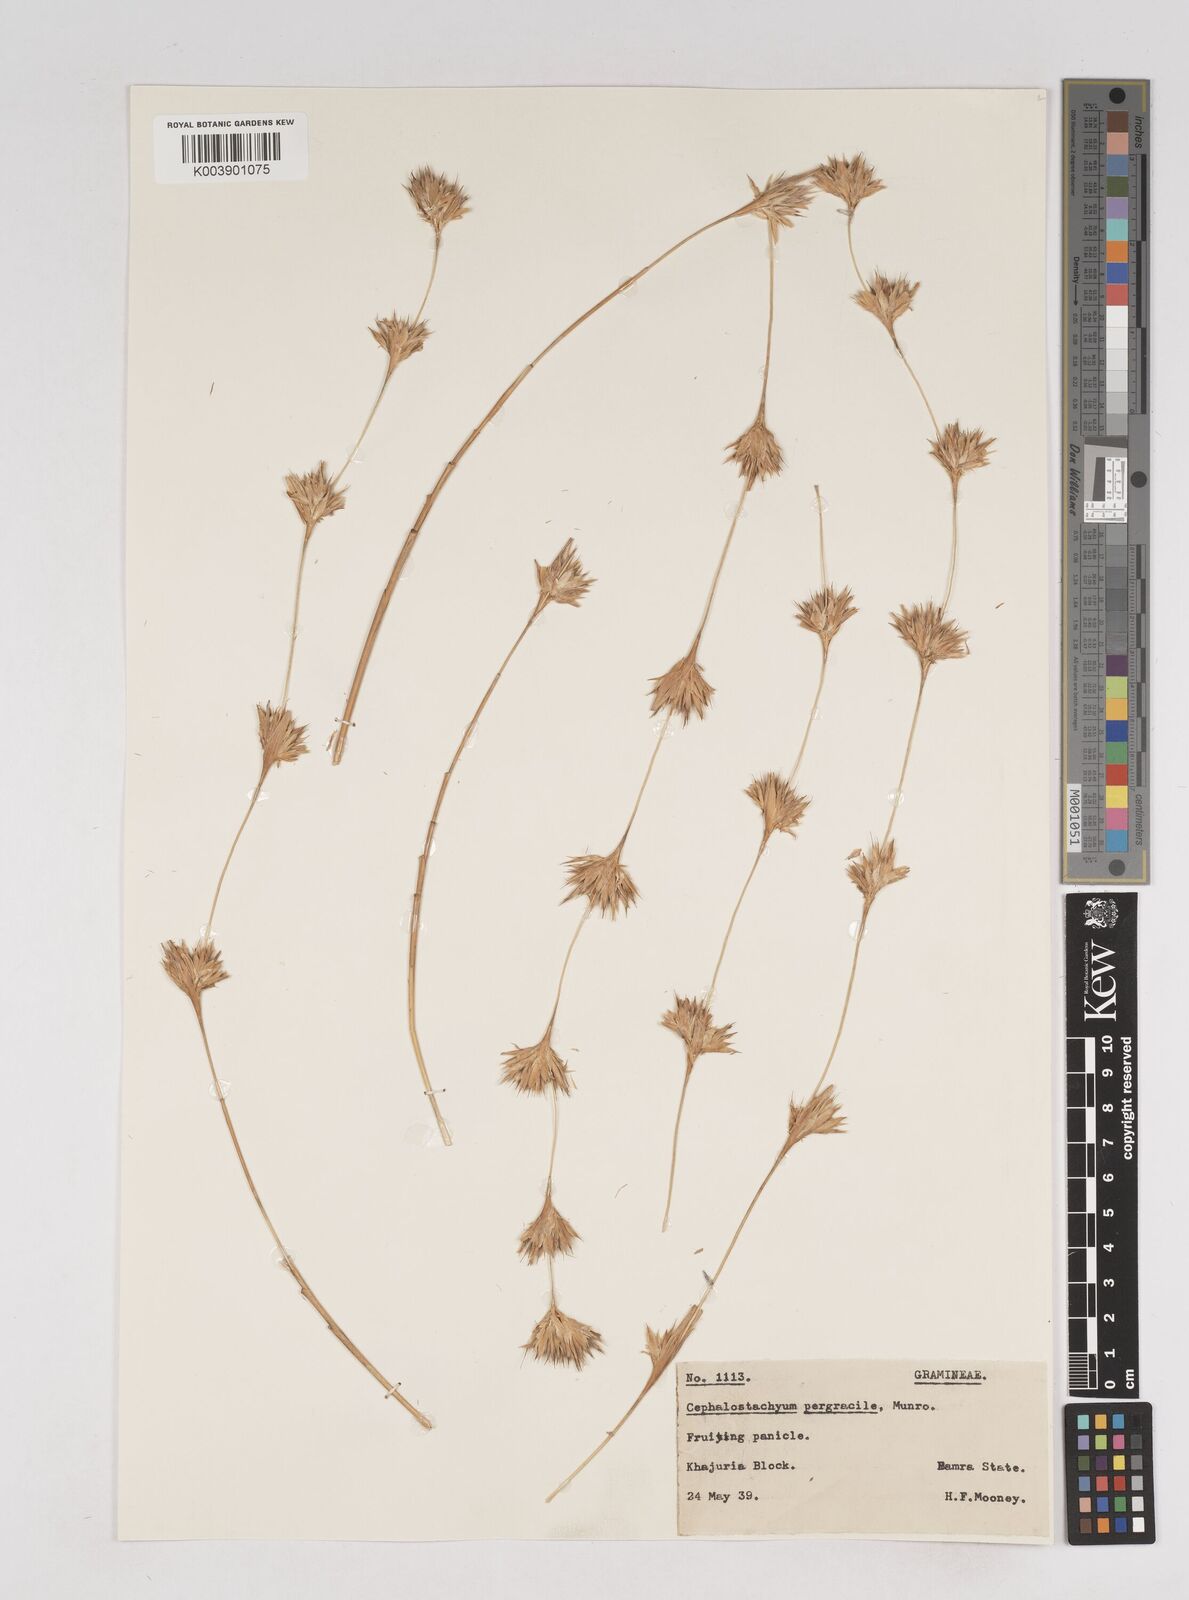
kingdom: Plantae
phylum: Tracheophyta
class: Liliopsida
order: Poales
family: Poaceae
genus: Schizostachyum
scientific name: Schizostachyum pergracile
